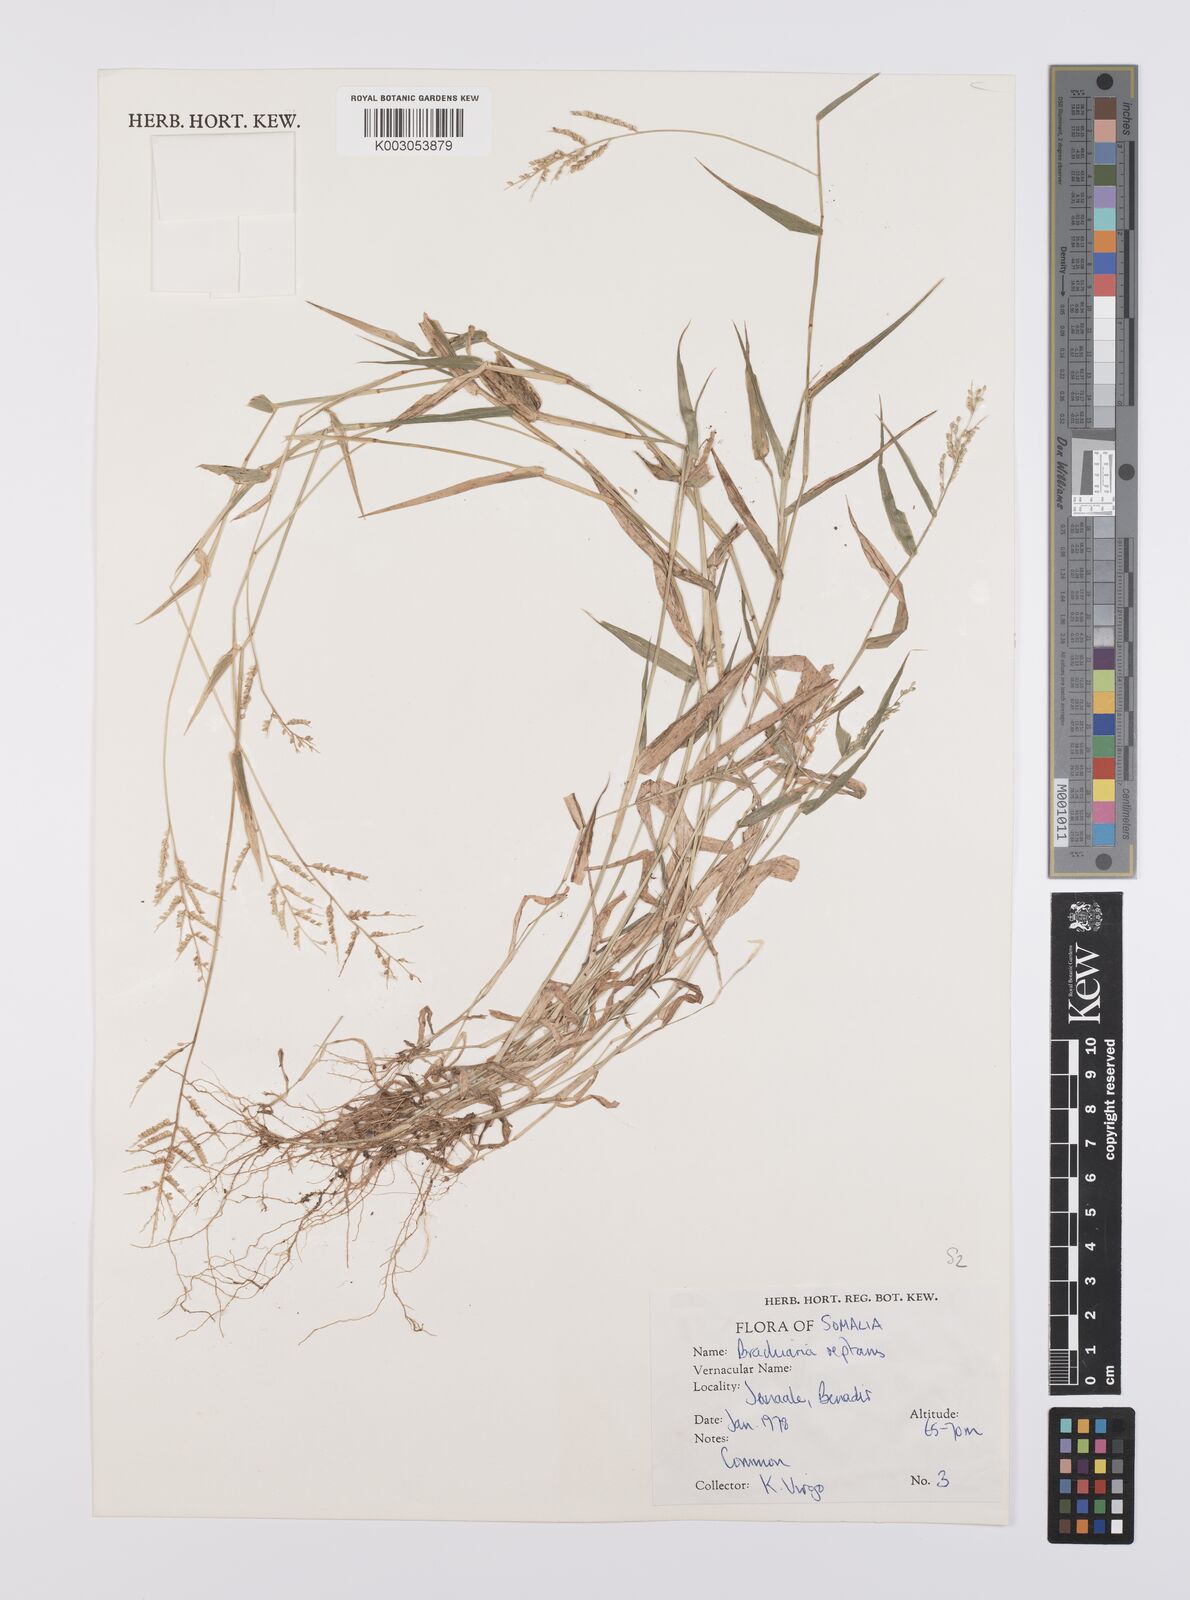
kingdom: Plantae
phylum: Tracheophyta
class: Liliopsida
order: Poales
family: Poaceae
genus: Urochloa
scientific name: Urochloa reptans
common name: Sprawling signalgrass
